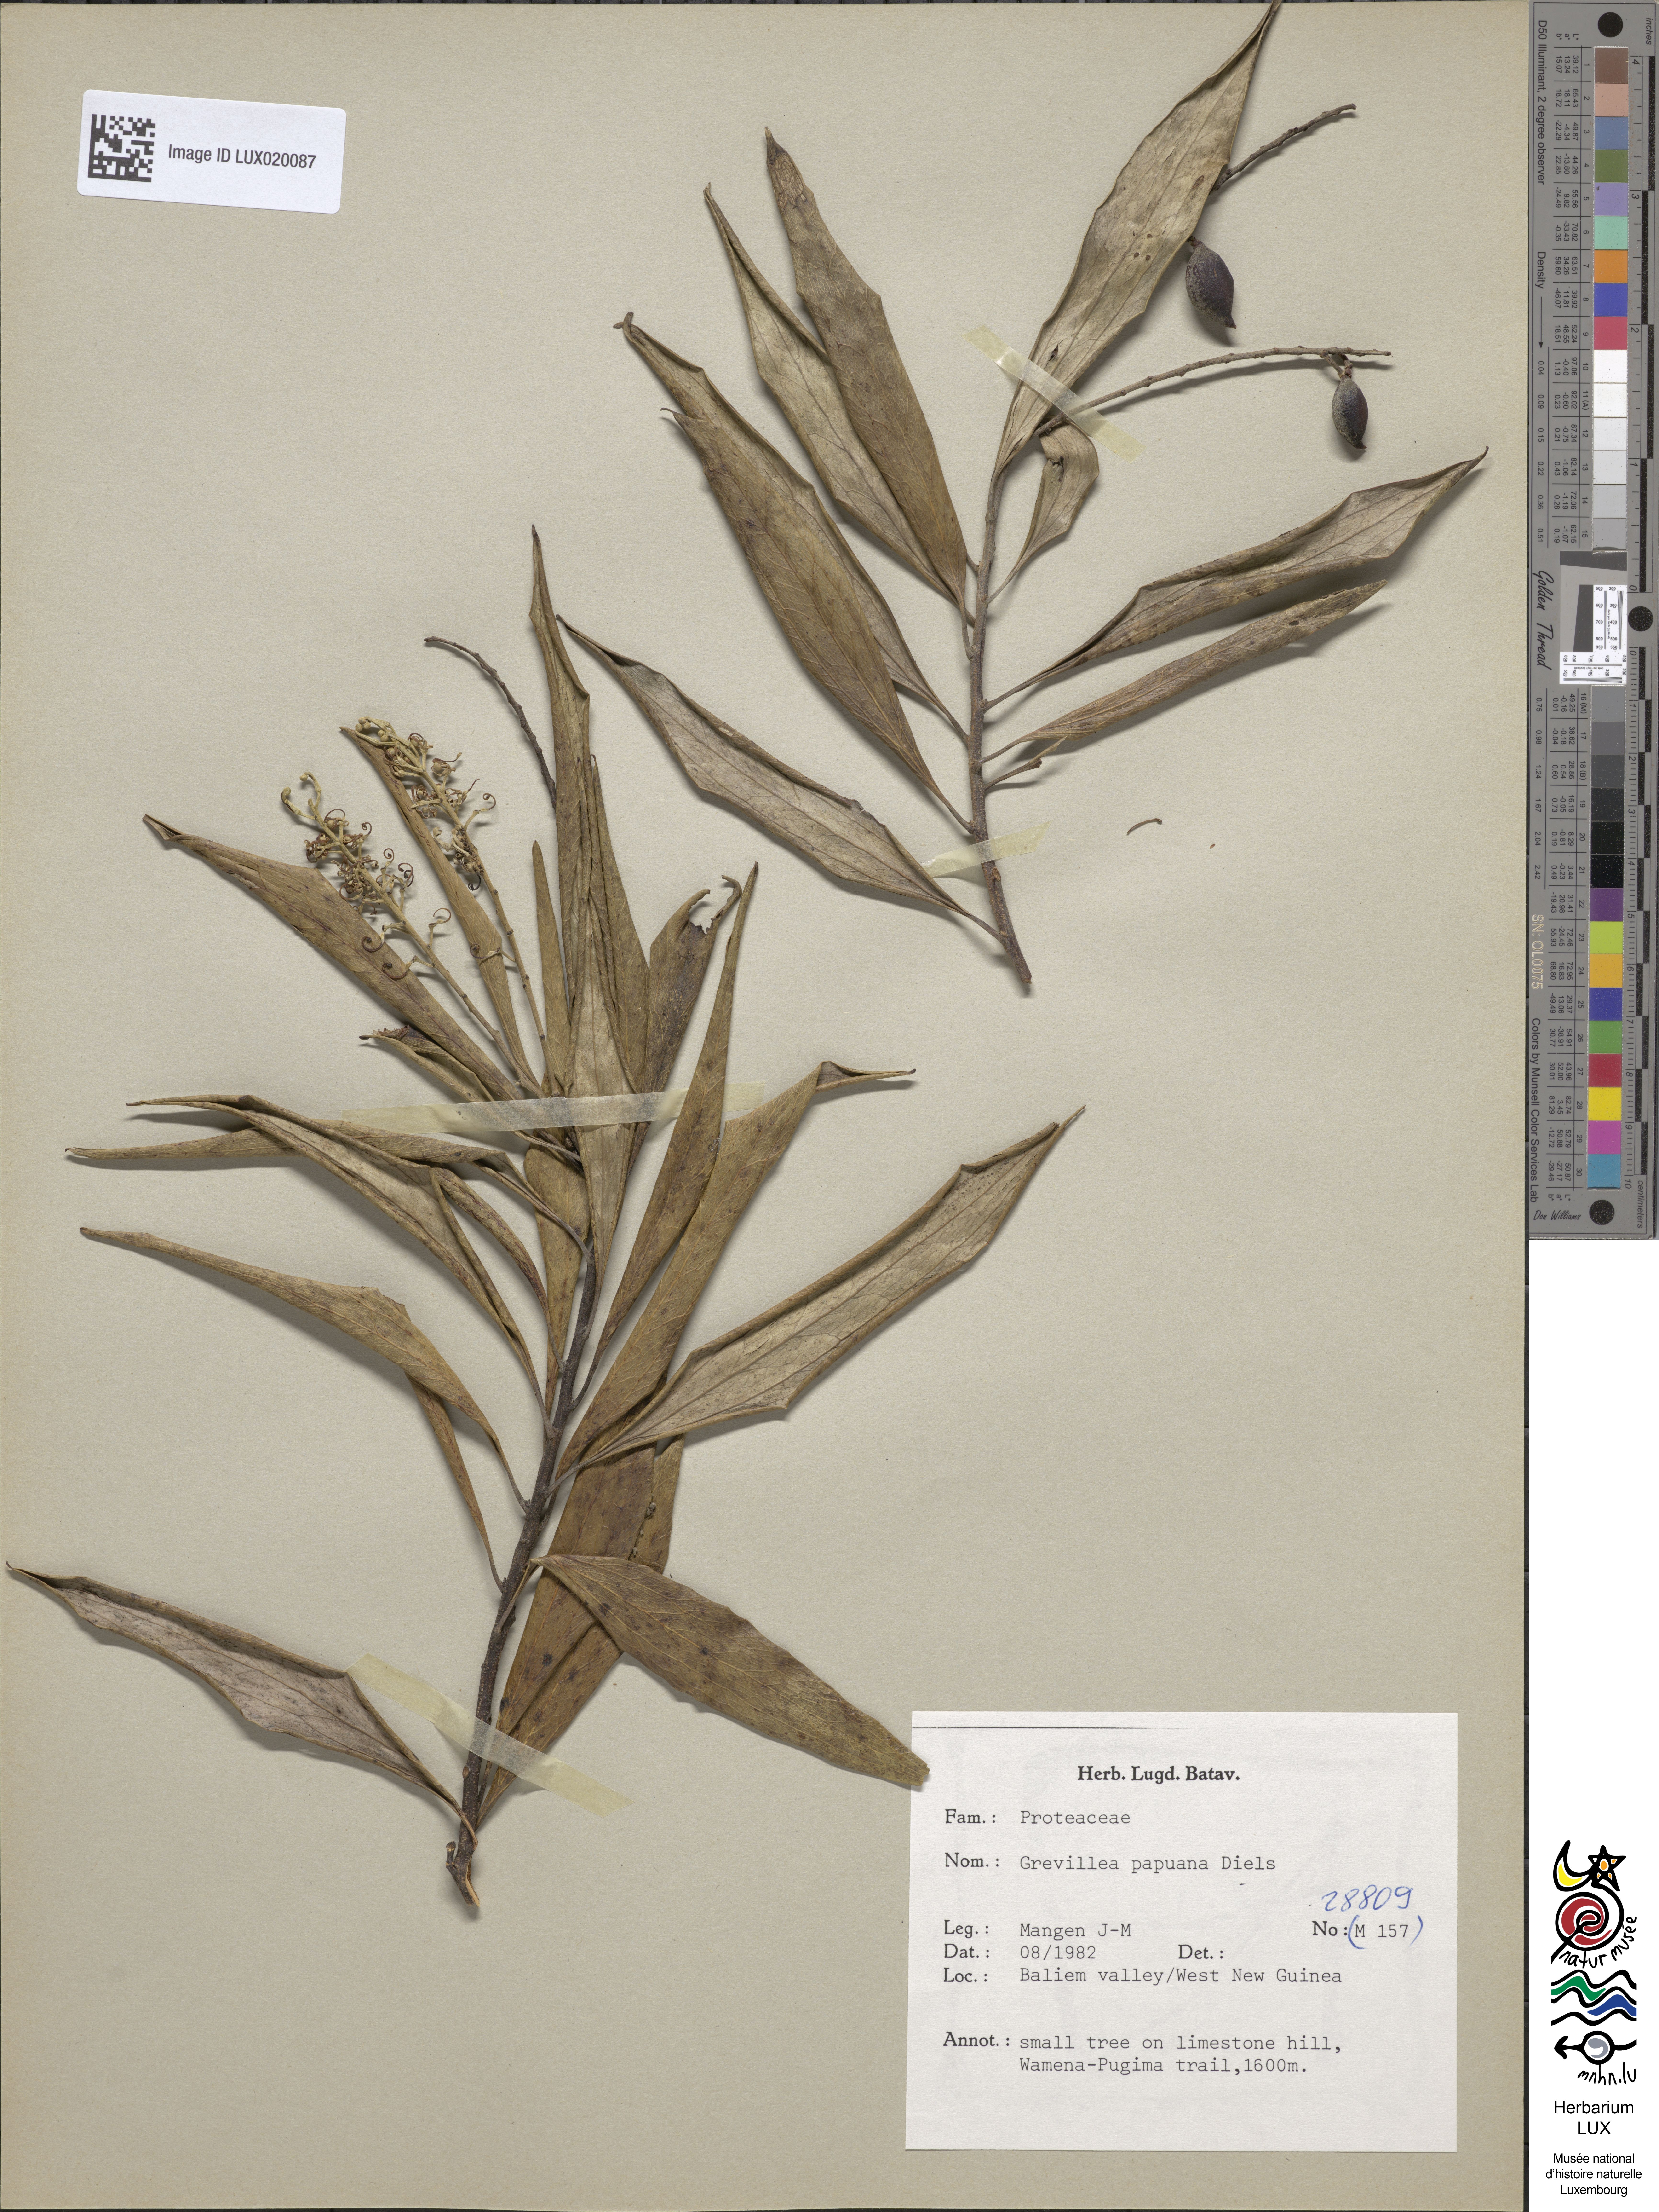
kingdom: Plantae
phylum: Tracheophyta
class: Magnoliopsida
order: Proteales
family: Proteaceae
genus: Grevillea
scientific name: Grevillea papuana
